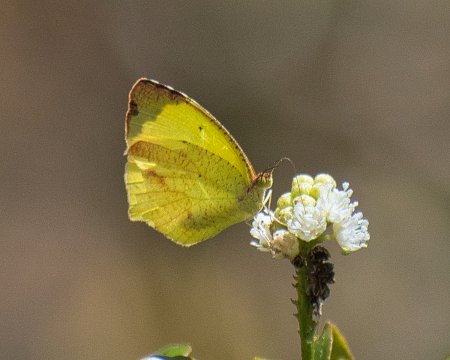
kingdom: Animalia
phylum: Arthropoda
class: Insecta
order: Lepidoptera
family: Pieridae
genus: Eurema
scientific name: Eurema boisduvaliana
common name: Boisduval's Yellow
